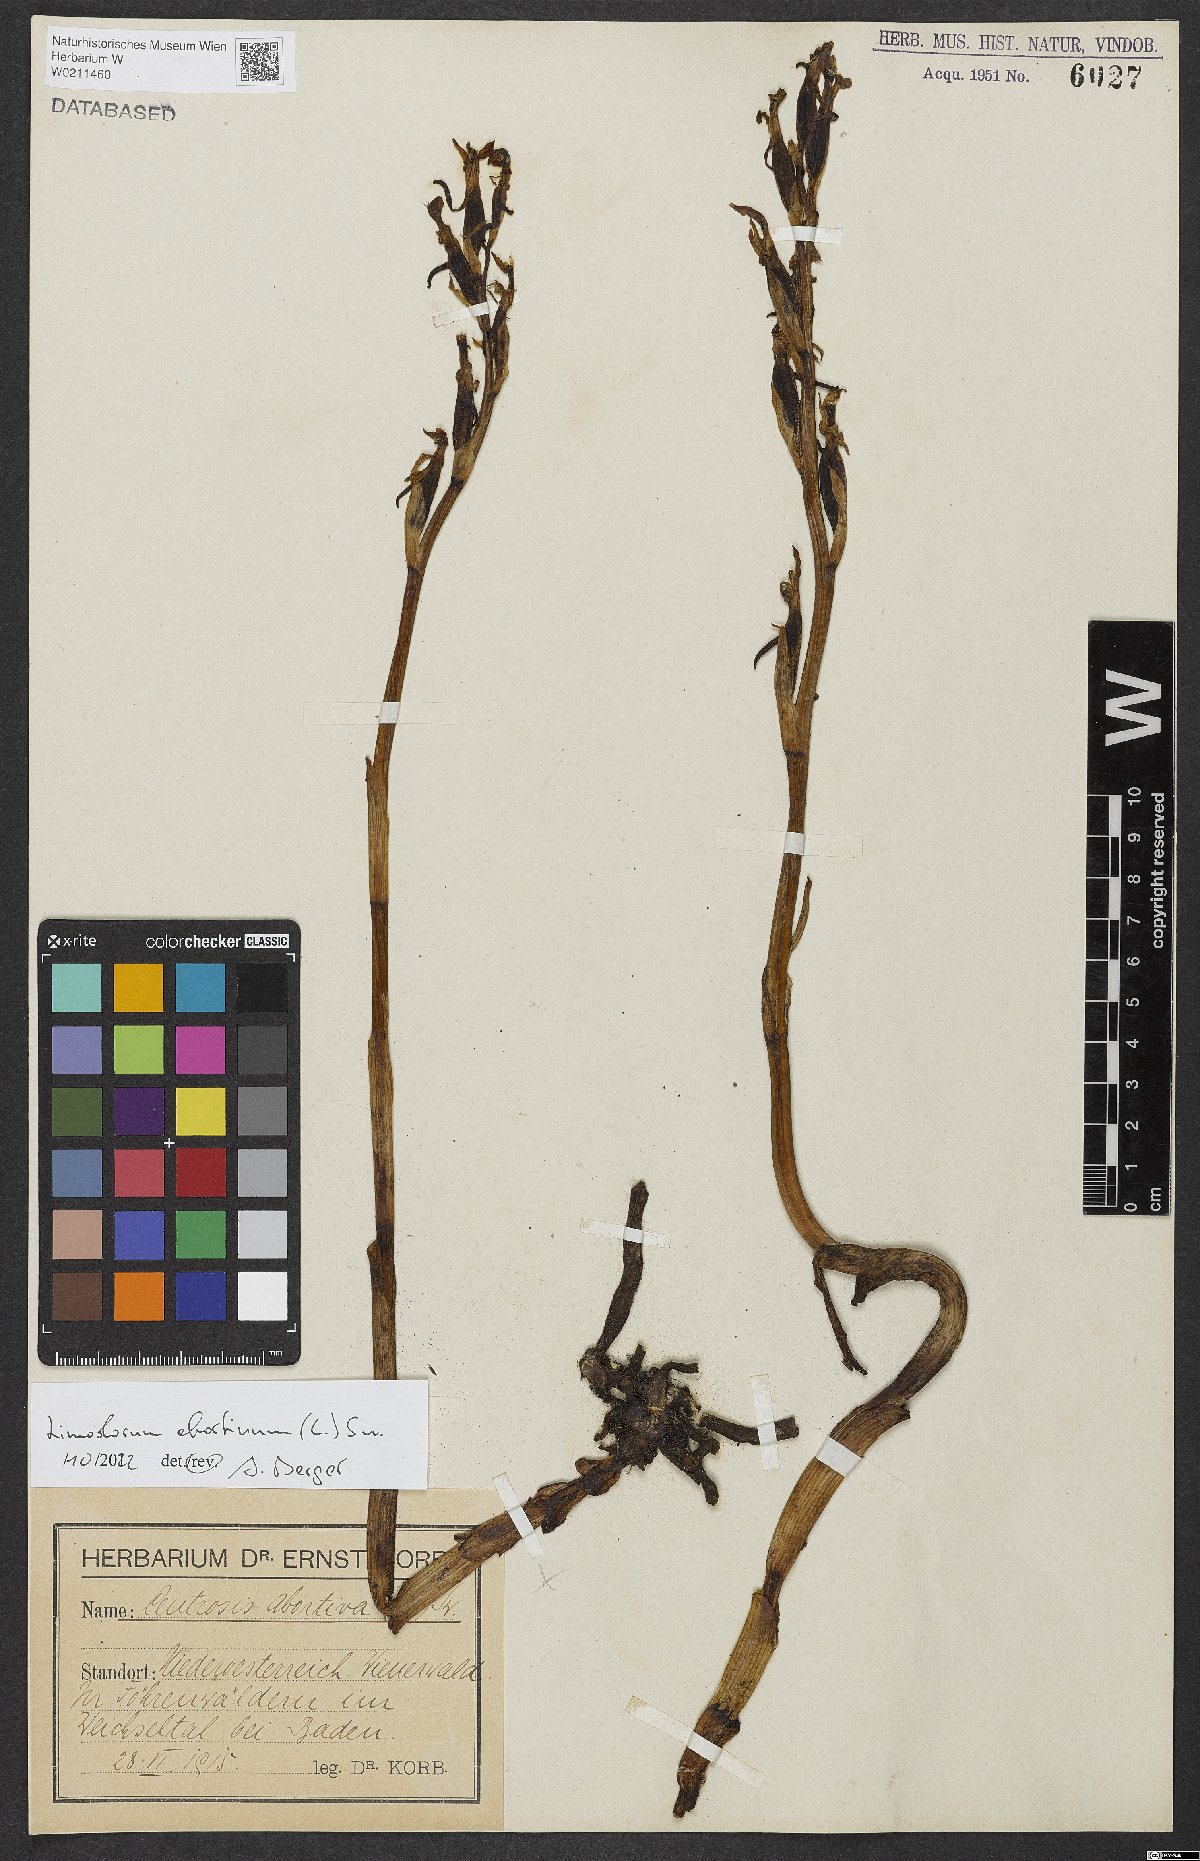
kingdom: Plantae
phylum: Tracheophyta
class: Liliopsida
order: Asparagales
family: Orchidaceae
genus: Limodorum
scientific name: Limodorum abortivum
